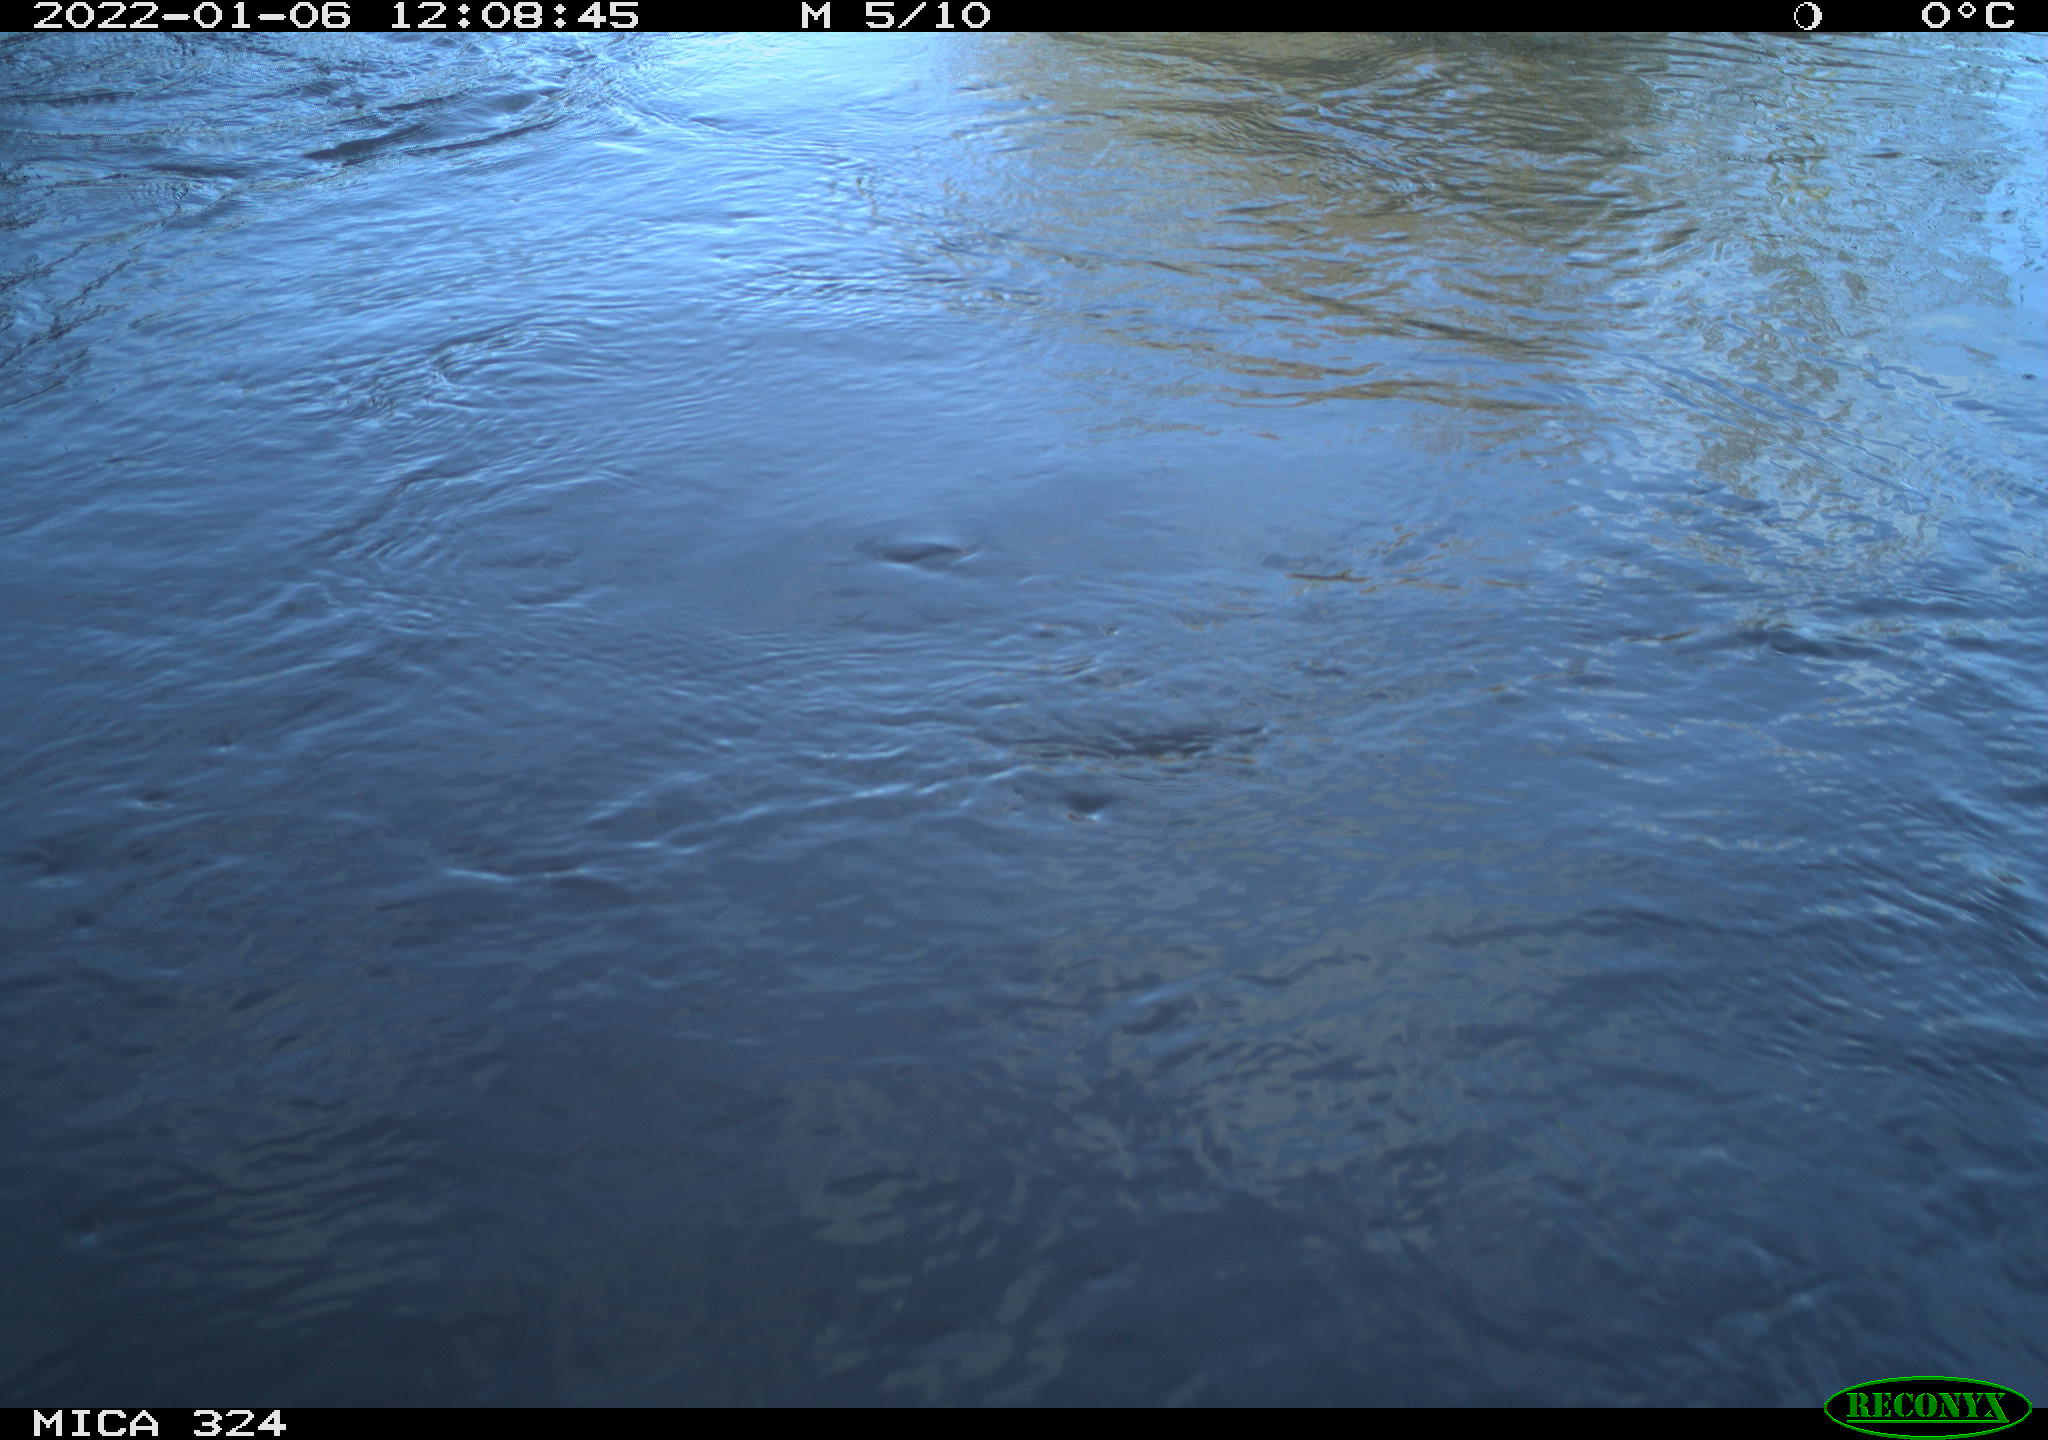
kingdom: Animalia
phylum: Chordata
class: Mammalia
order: Rodentia
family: Cricetidae
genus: Ondatra
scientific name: Ondatra zibethicus
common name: Muskrat
